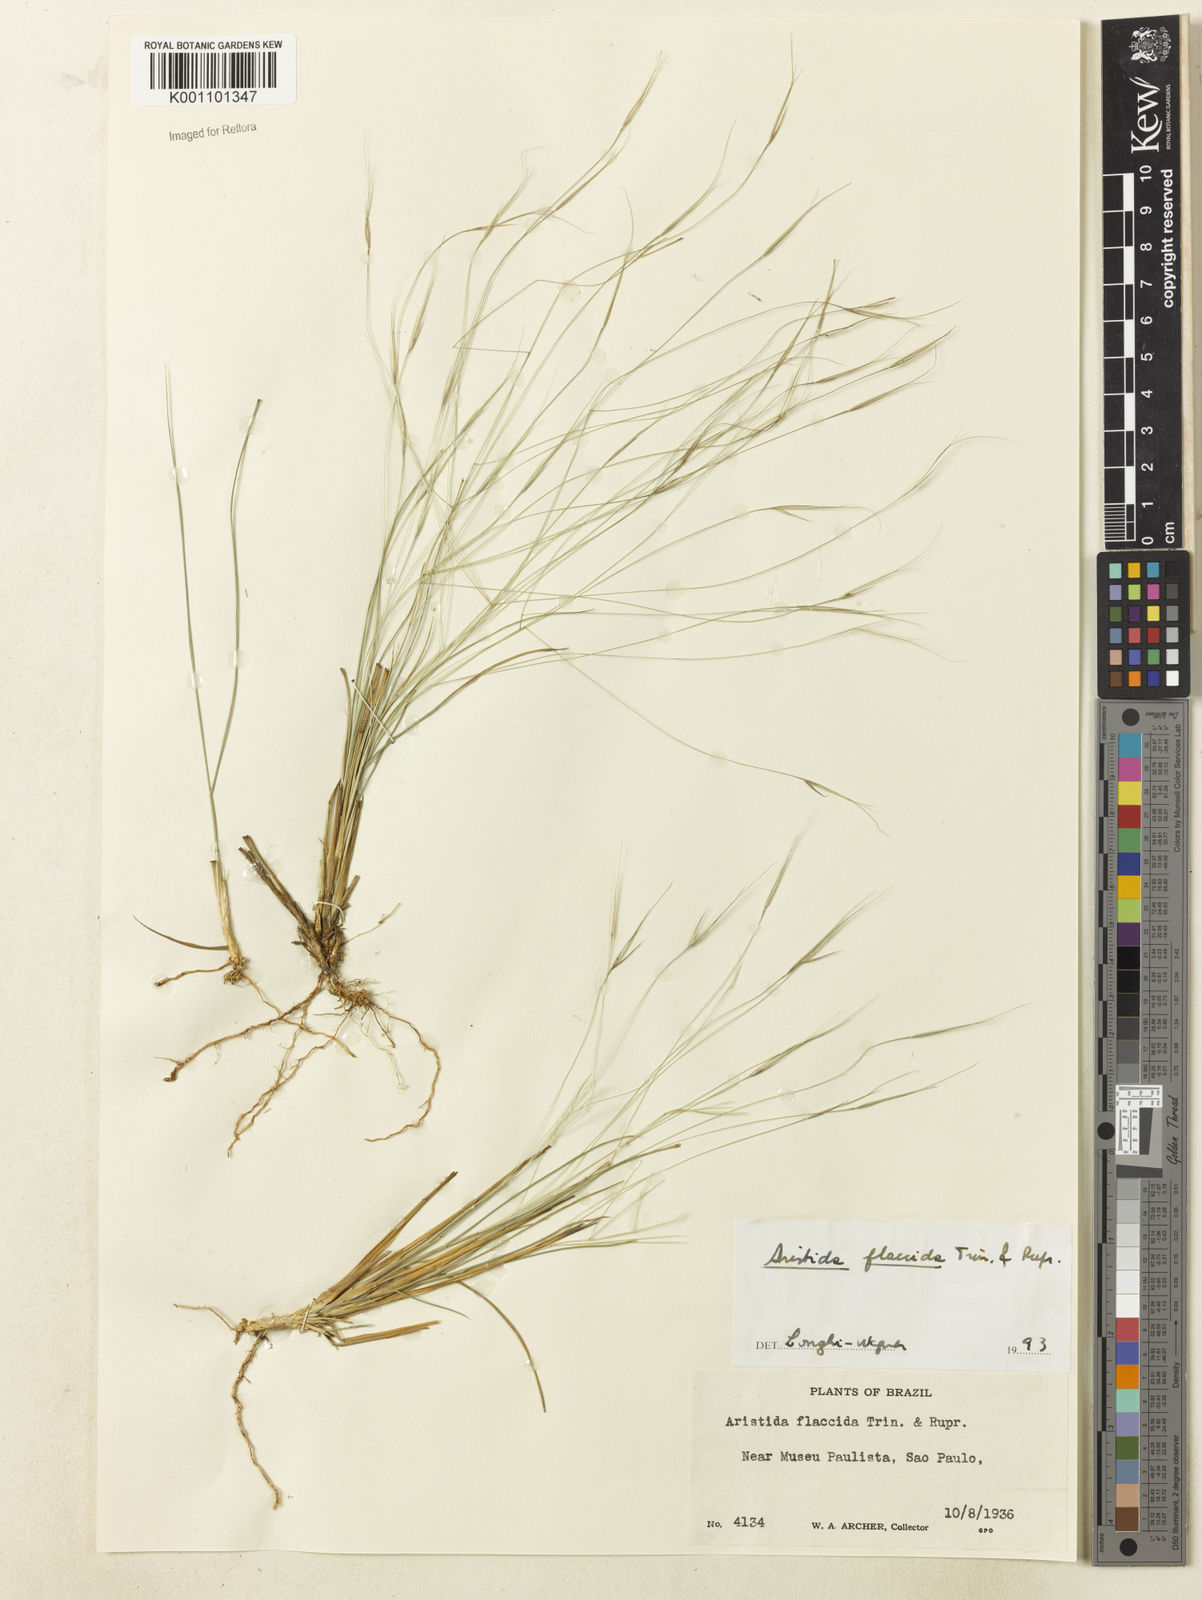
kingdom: Plantae
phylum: Tracheophyta
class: Liliopsida
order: Poales
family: Poaceae
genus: Aristida
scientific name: Aristida flaccida
